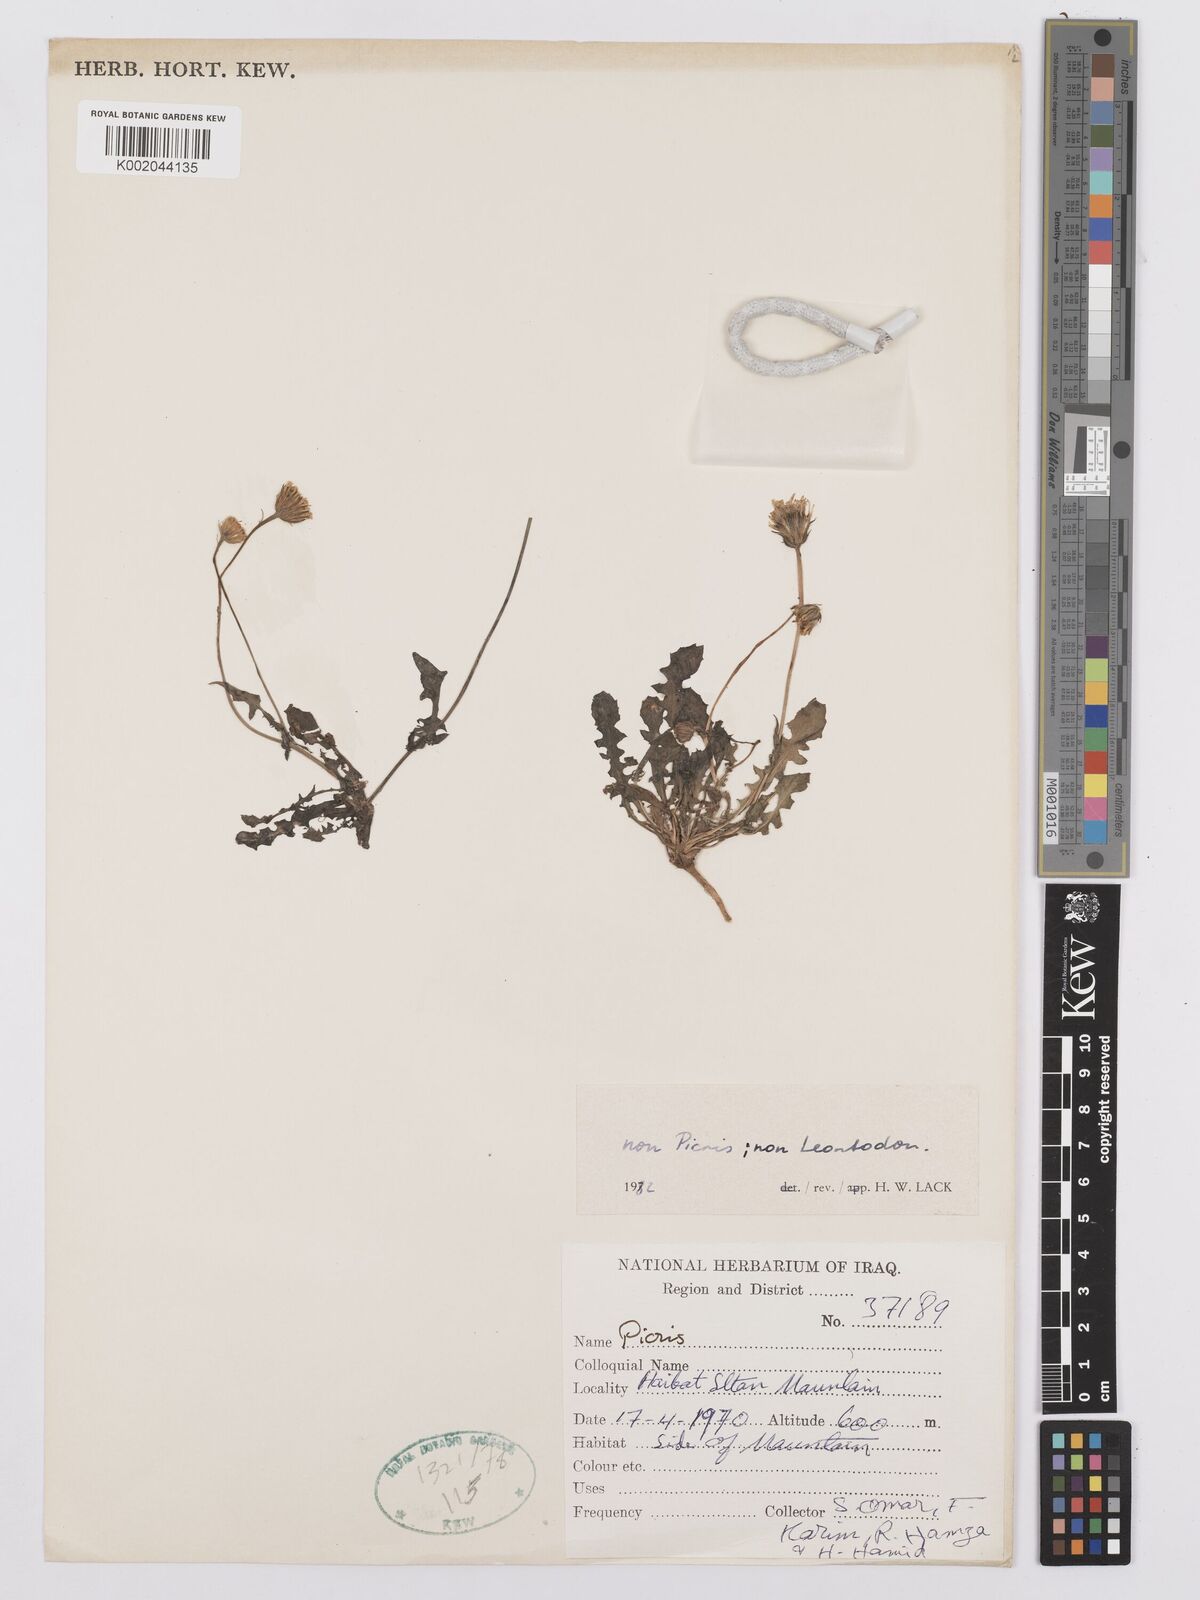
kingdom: Plantae
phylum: Tracheophyta
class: Magnoliopsida
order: Asterales
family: Asteraceae
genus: Picris
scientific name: Picris
